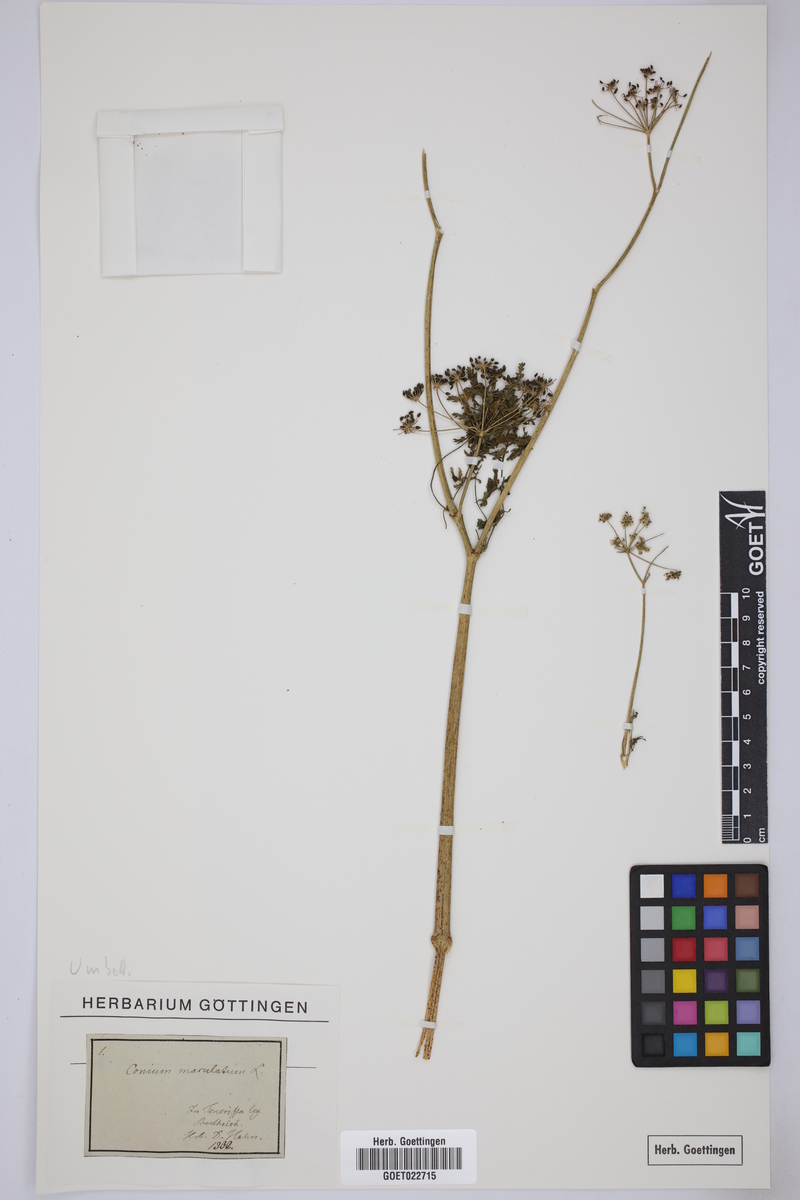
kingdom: Plantae
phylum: Tracheophyta
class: Magnoliopsida
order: Apiales
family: Apiaceae
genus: Conium
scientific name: Conium maculatum
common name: Hemlock
